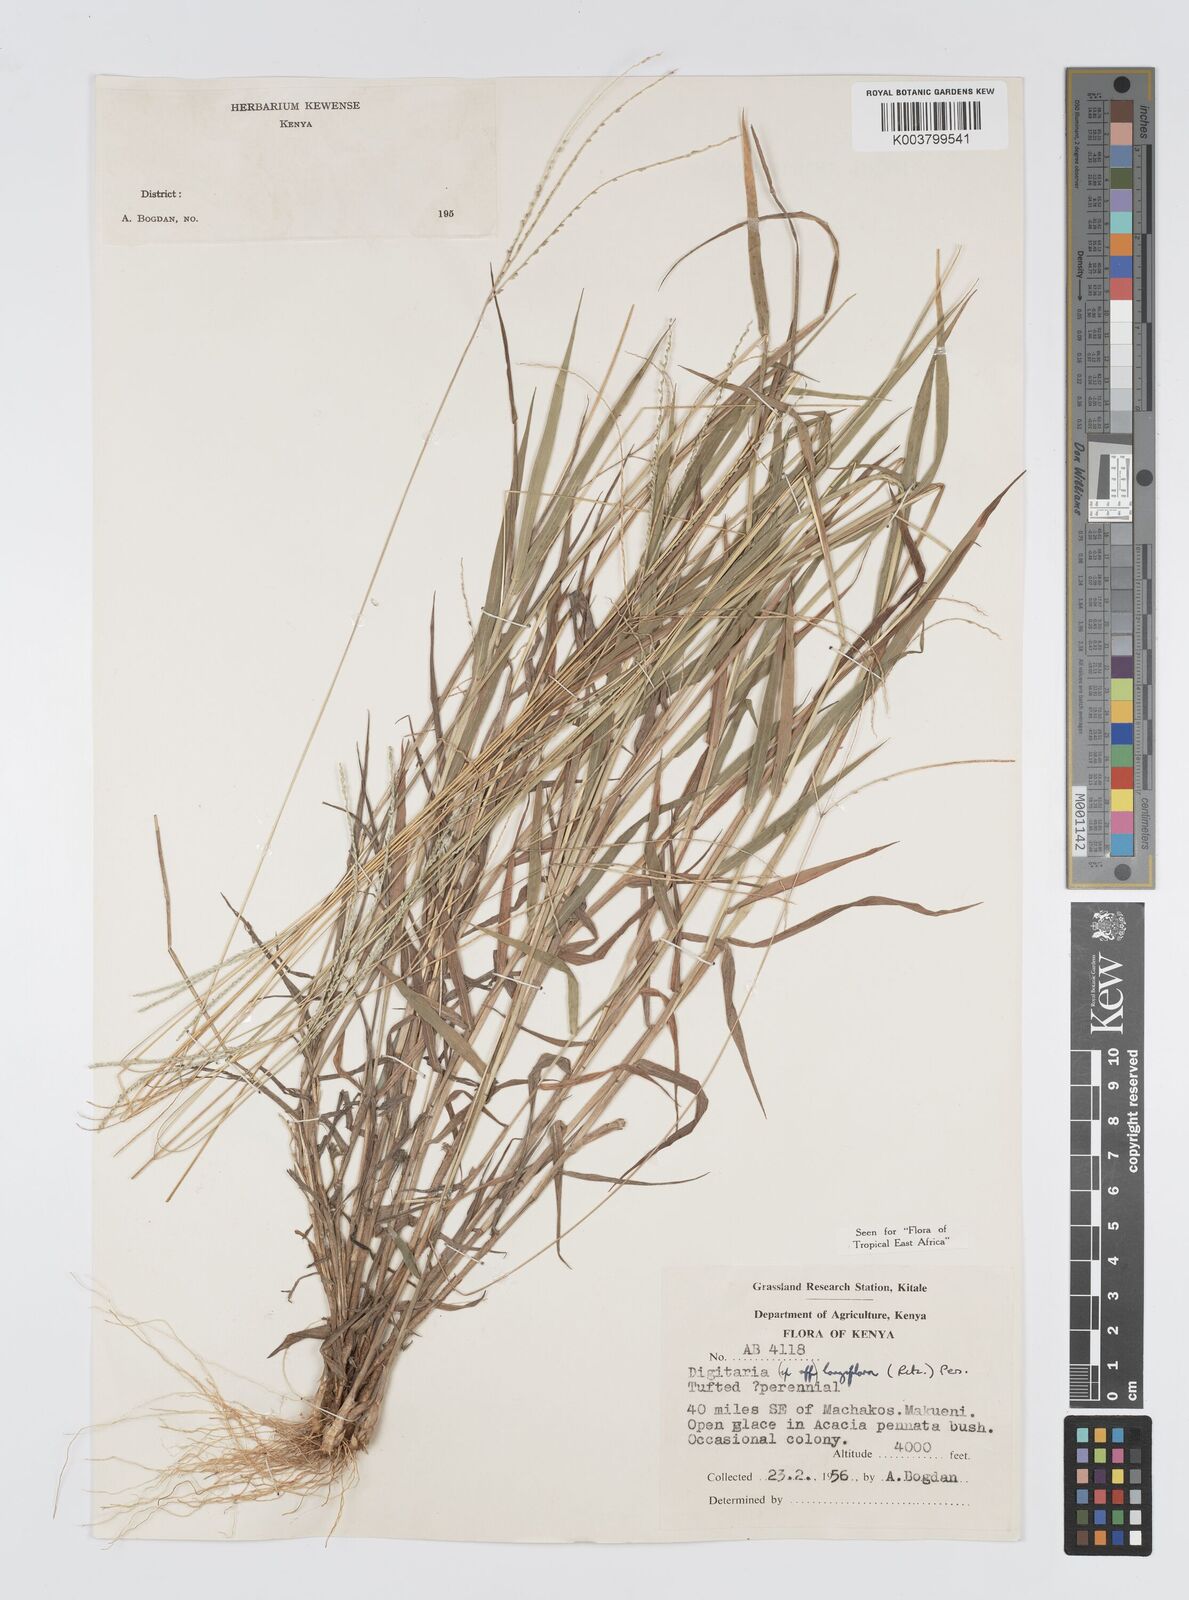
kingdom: Plantae
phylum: Tracheophyta
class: Liliopsida
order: Poales
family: Poaceae
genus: Digitaria
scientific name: Digitaria longiflora
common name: Wire crabgrass
